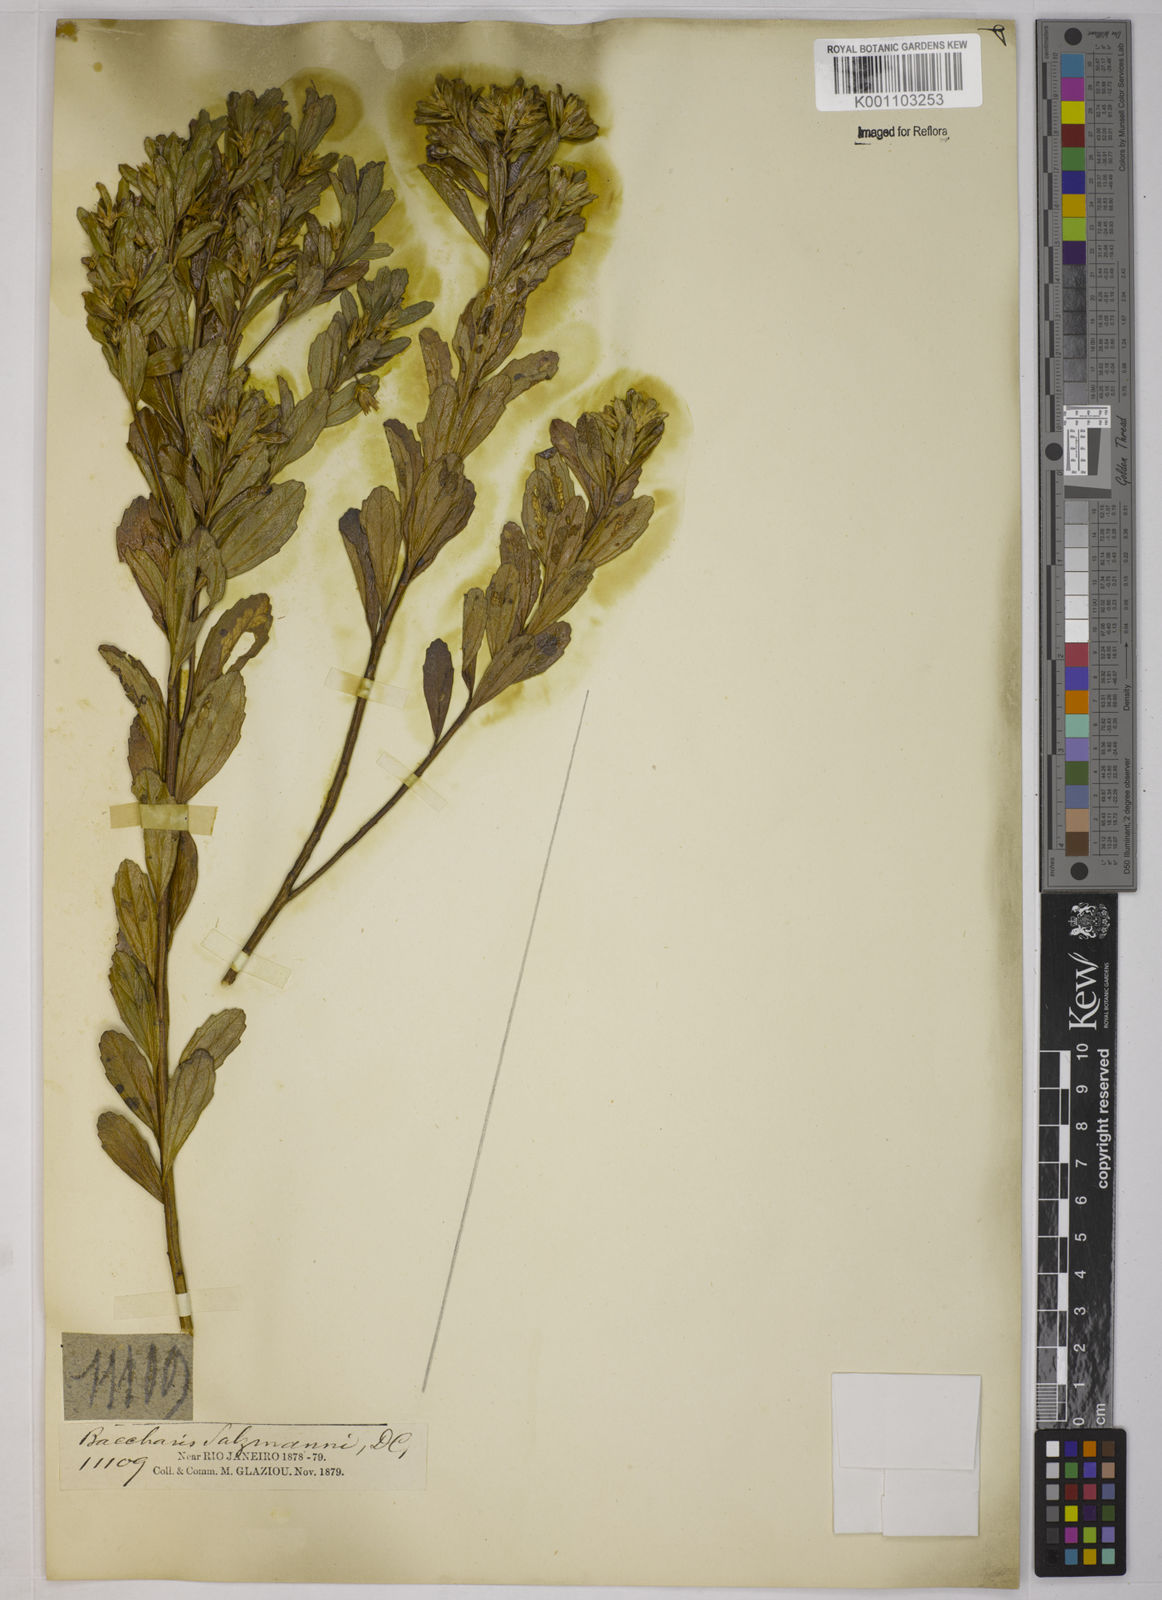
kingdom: Plantae
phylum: Tracheophyta
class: Magnoliopsida
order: Asterales
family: Asteraceae
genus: Baccharis
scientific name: Baccharis retusa
